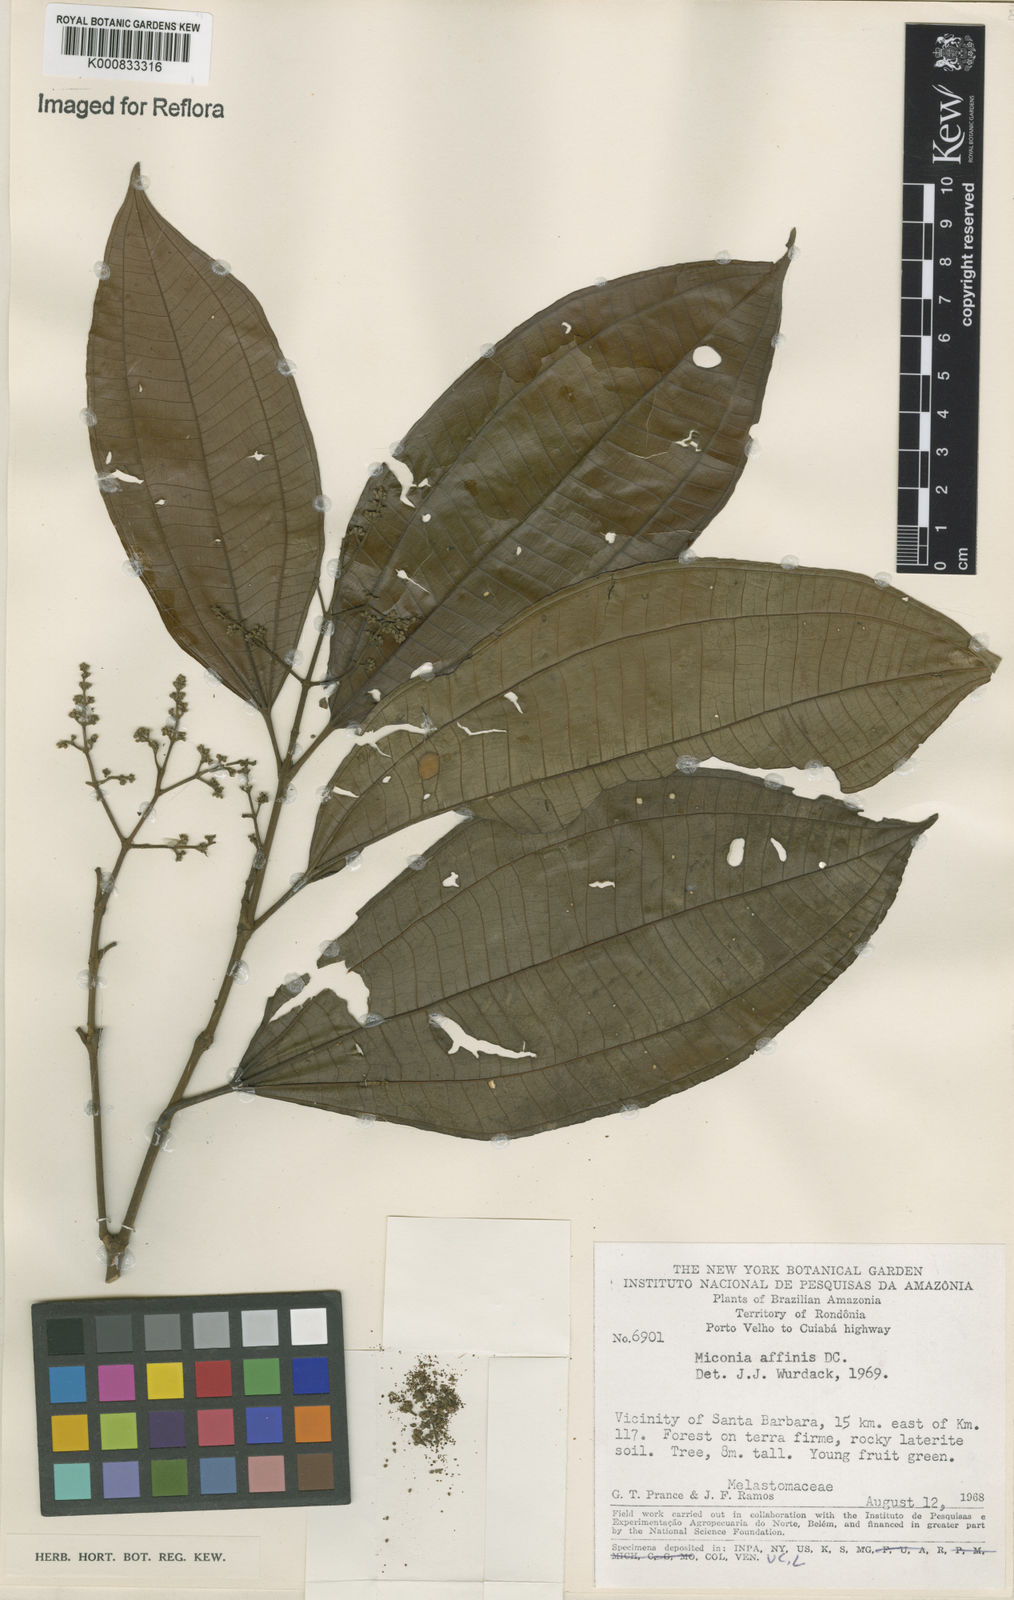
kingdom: Plantae
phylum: Tracheophyta
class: Magnoliopsida
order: Myrtales
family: Melastomataceae
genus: Miconia
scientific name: Miconia affinis
